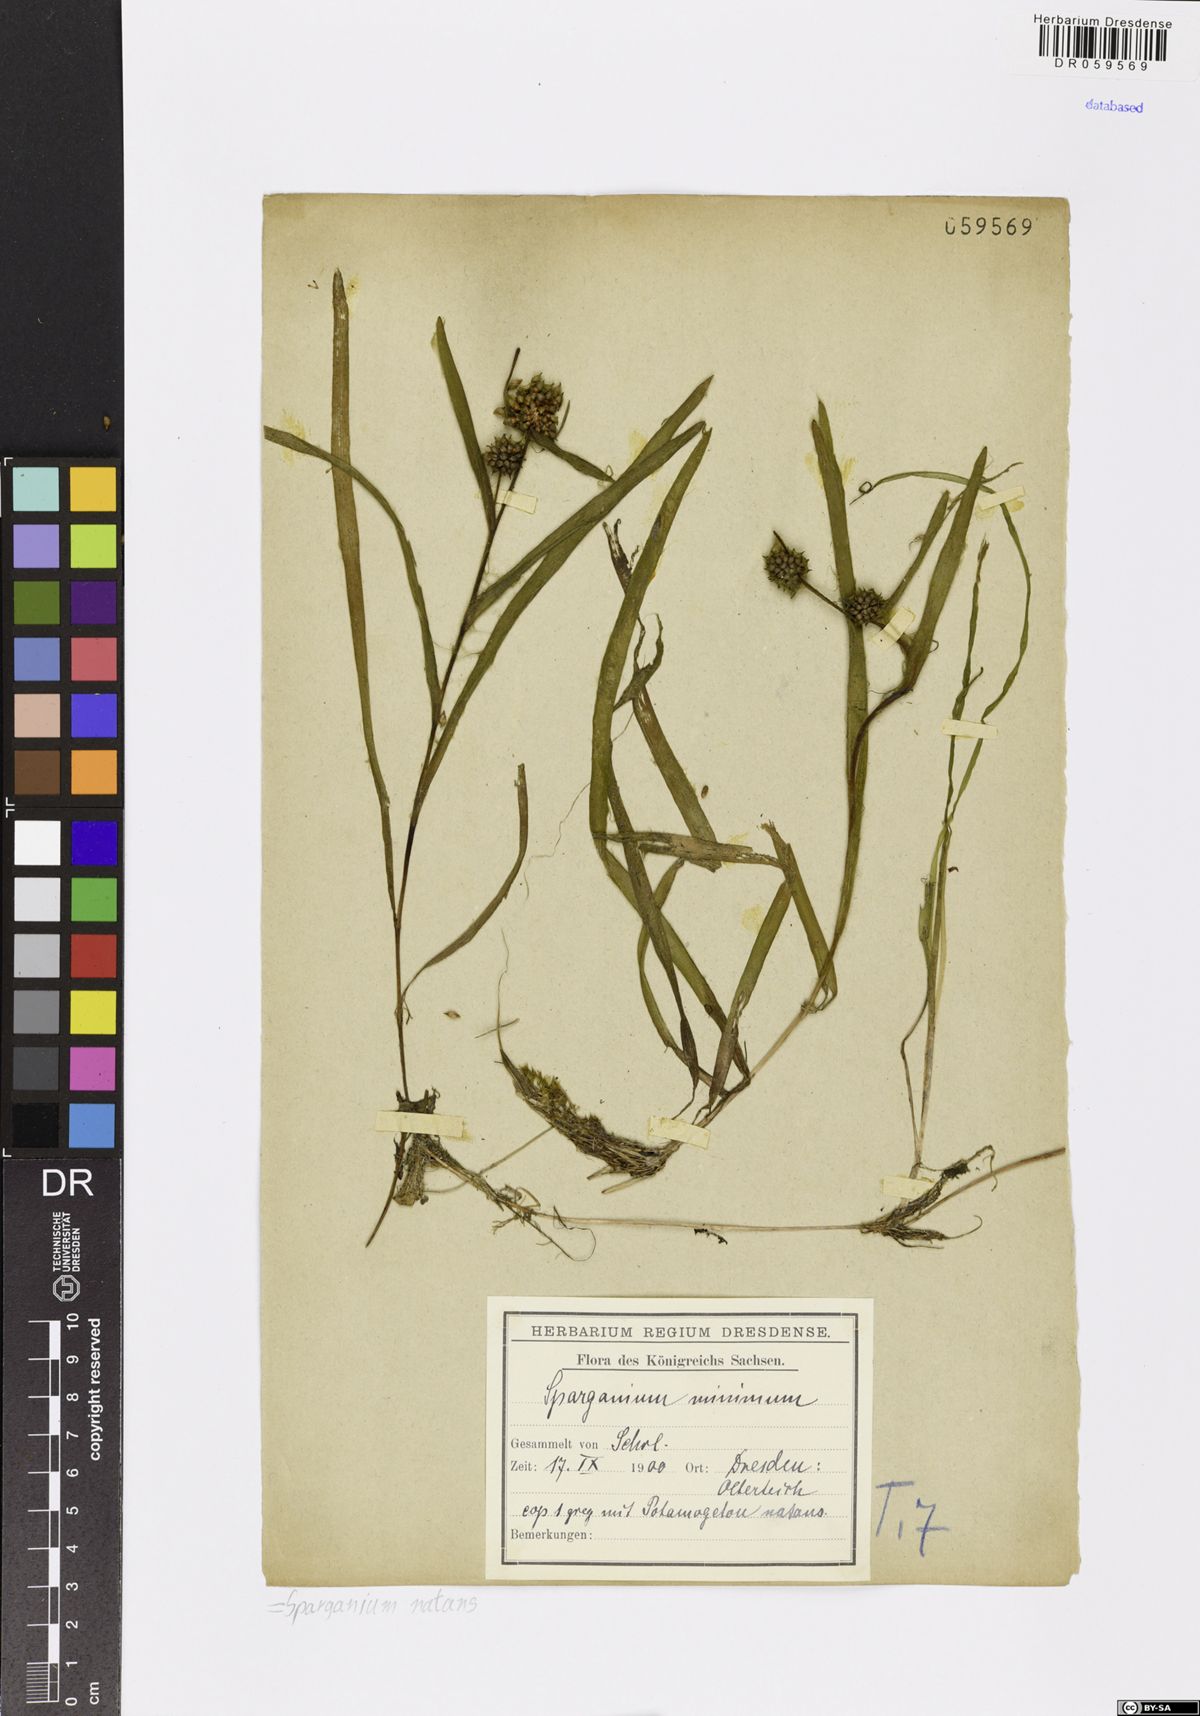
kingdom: Plantae
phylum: Tracheophyta
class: Liliopsida
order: Poales
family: Typhaceae
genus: Sparganium
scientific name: Sparganium natans
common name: Least bur-reed
